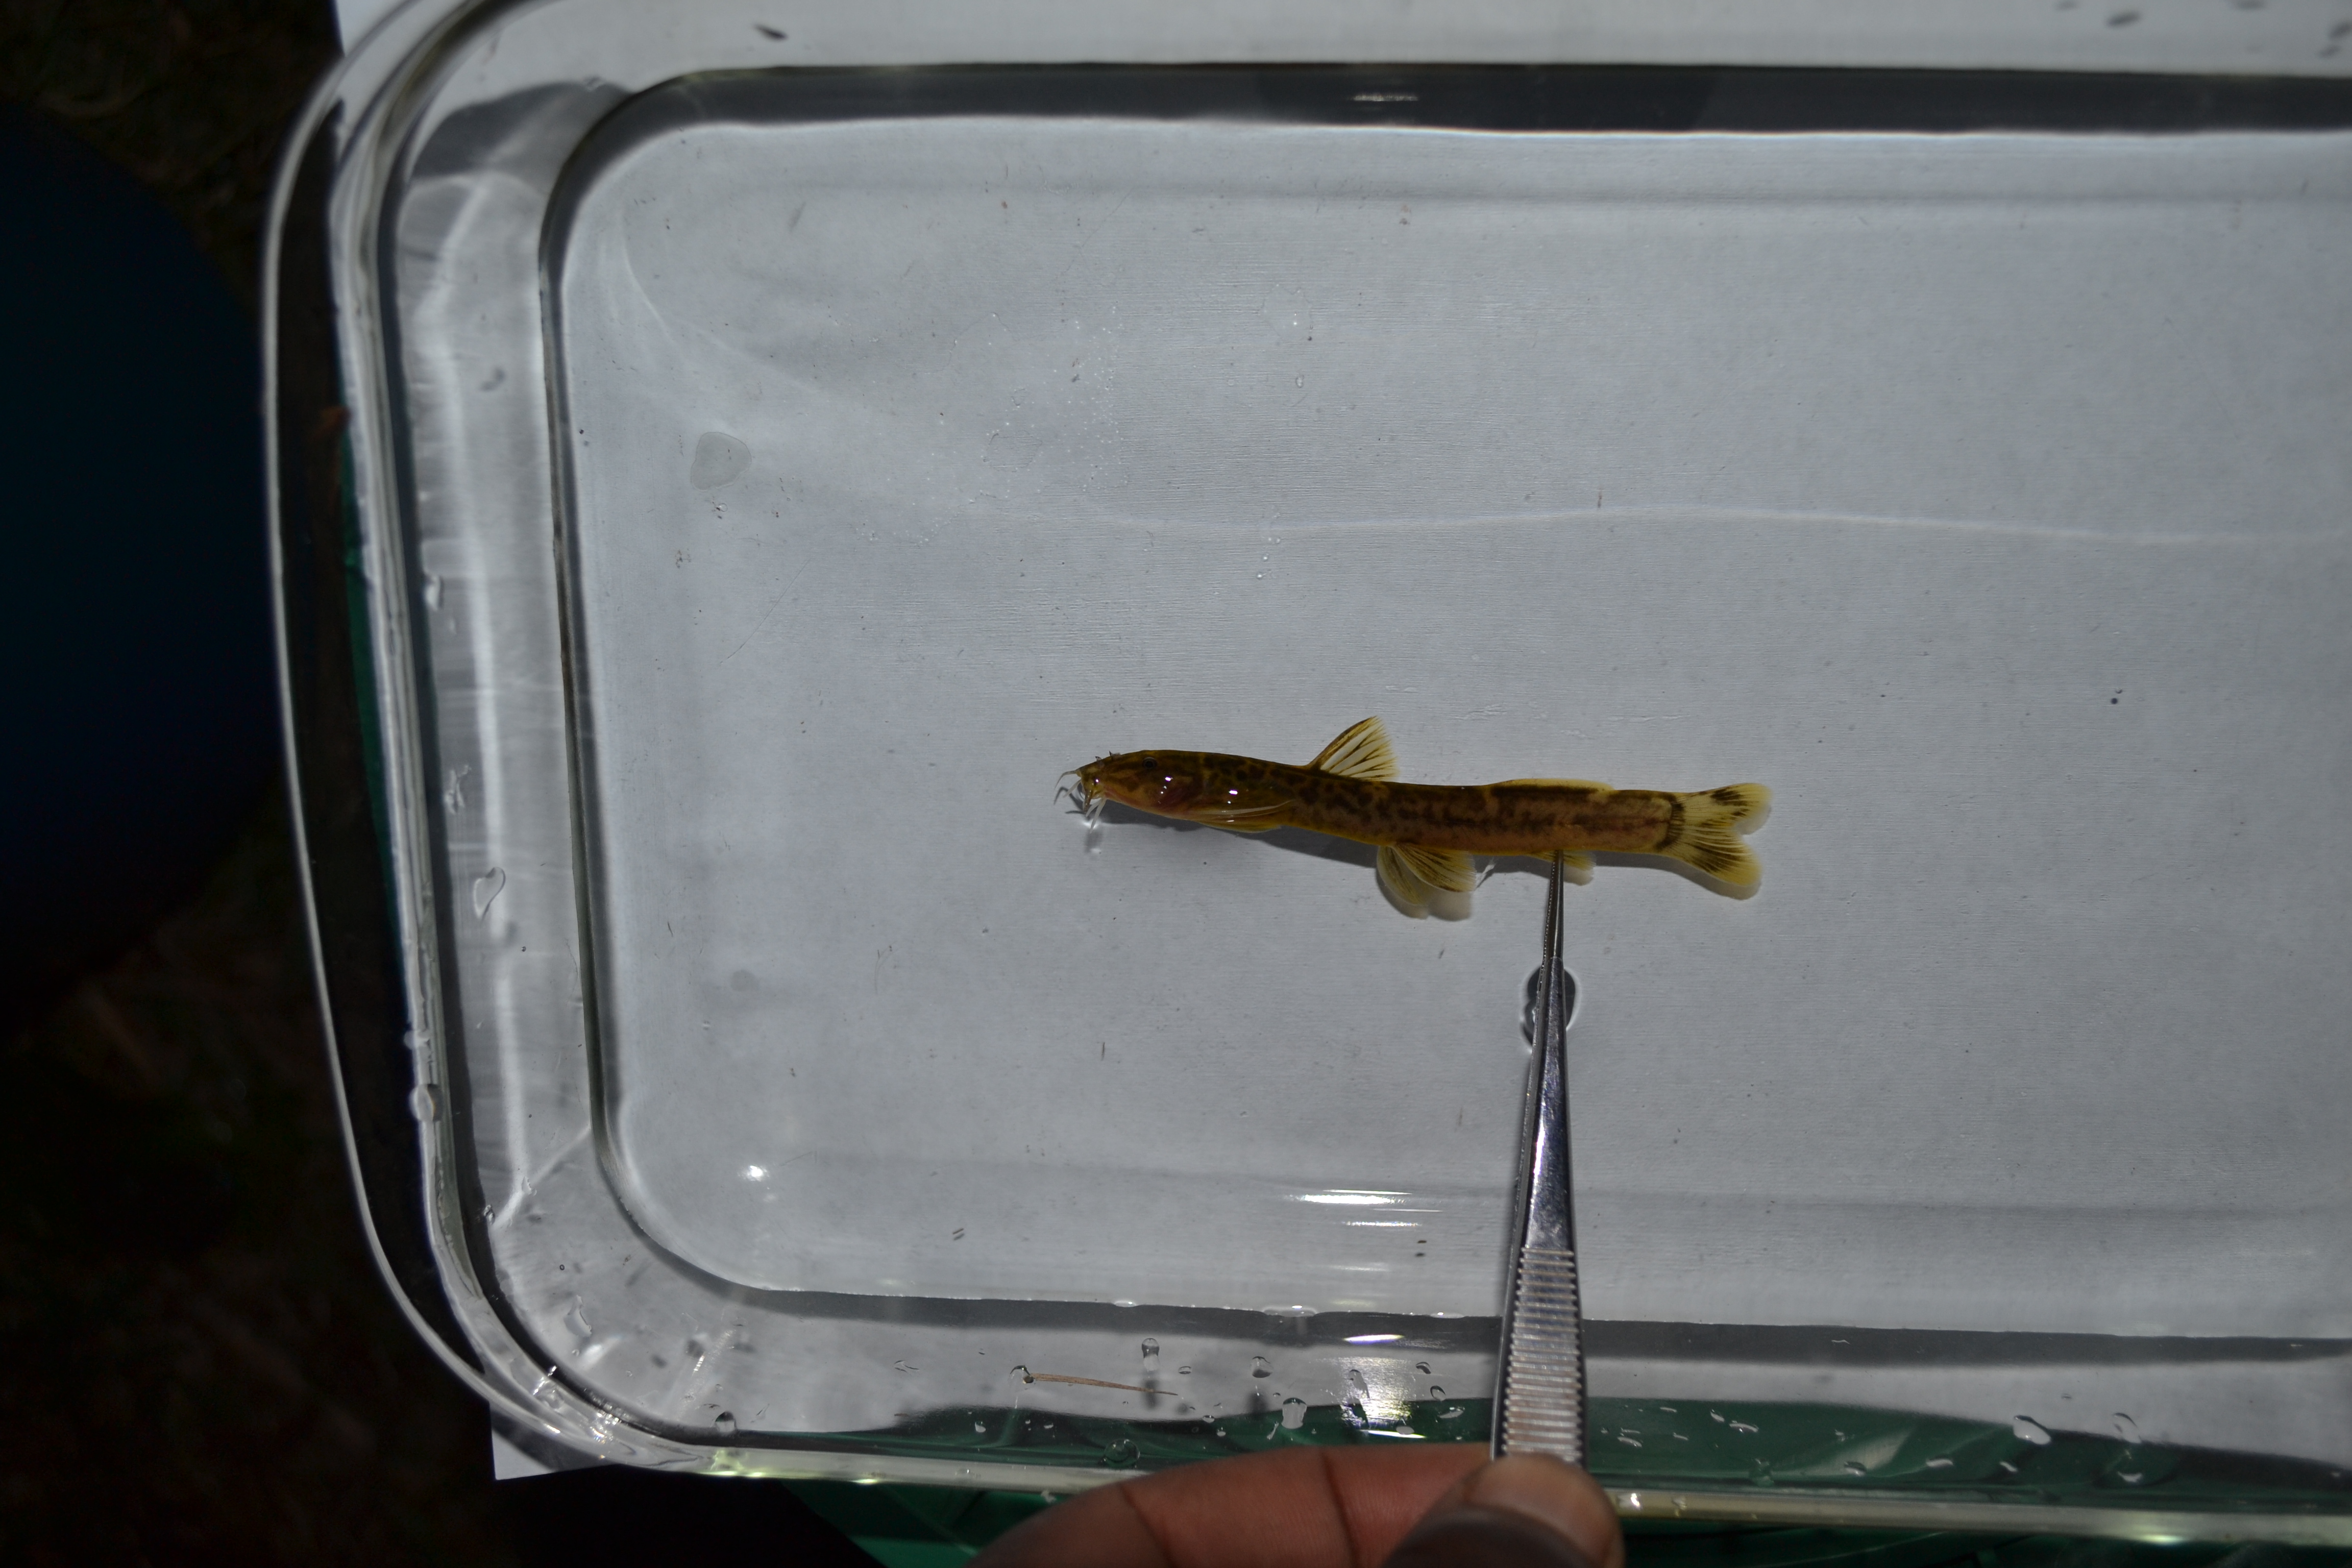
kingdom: Animalia
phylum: Chordata
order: Siluriformes
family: Amphiliidae
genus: Amphilius
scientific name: Amphilius uranoscopus
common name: Stargazer mountain catfish
